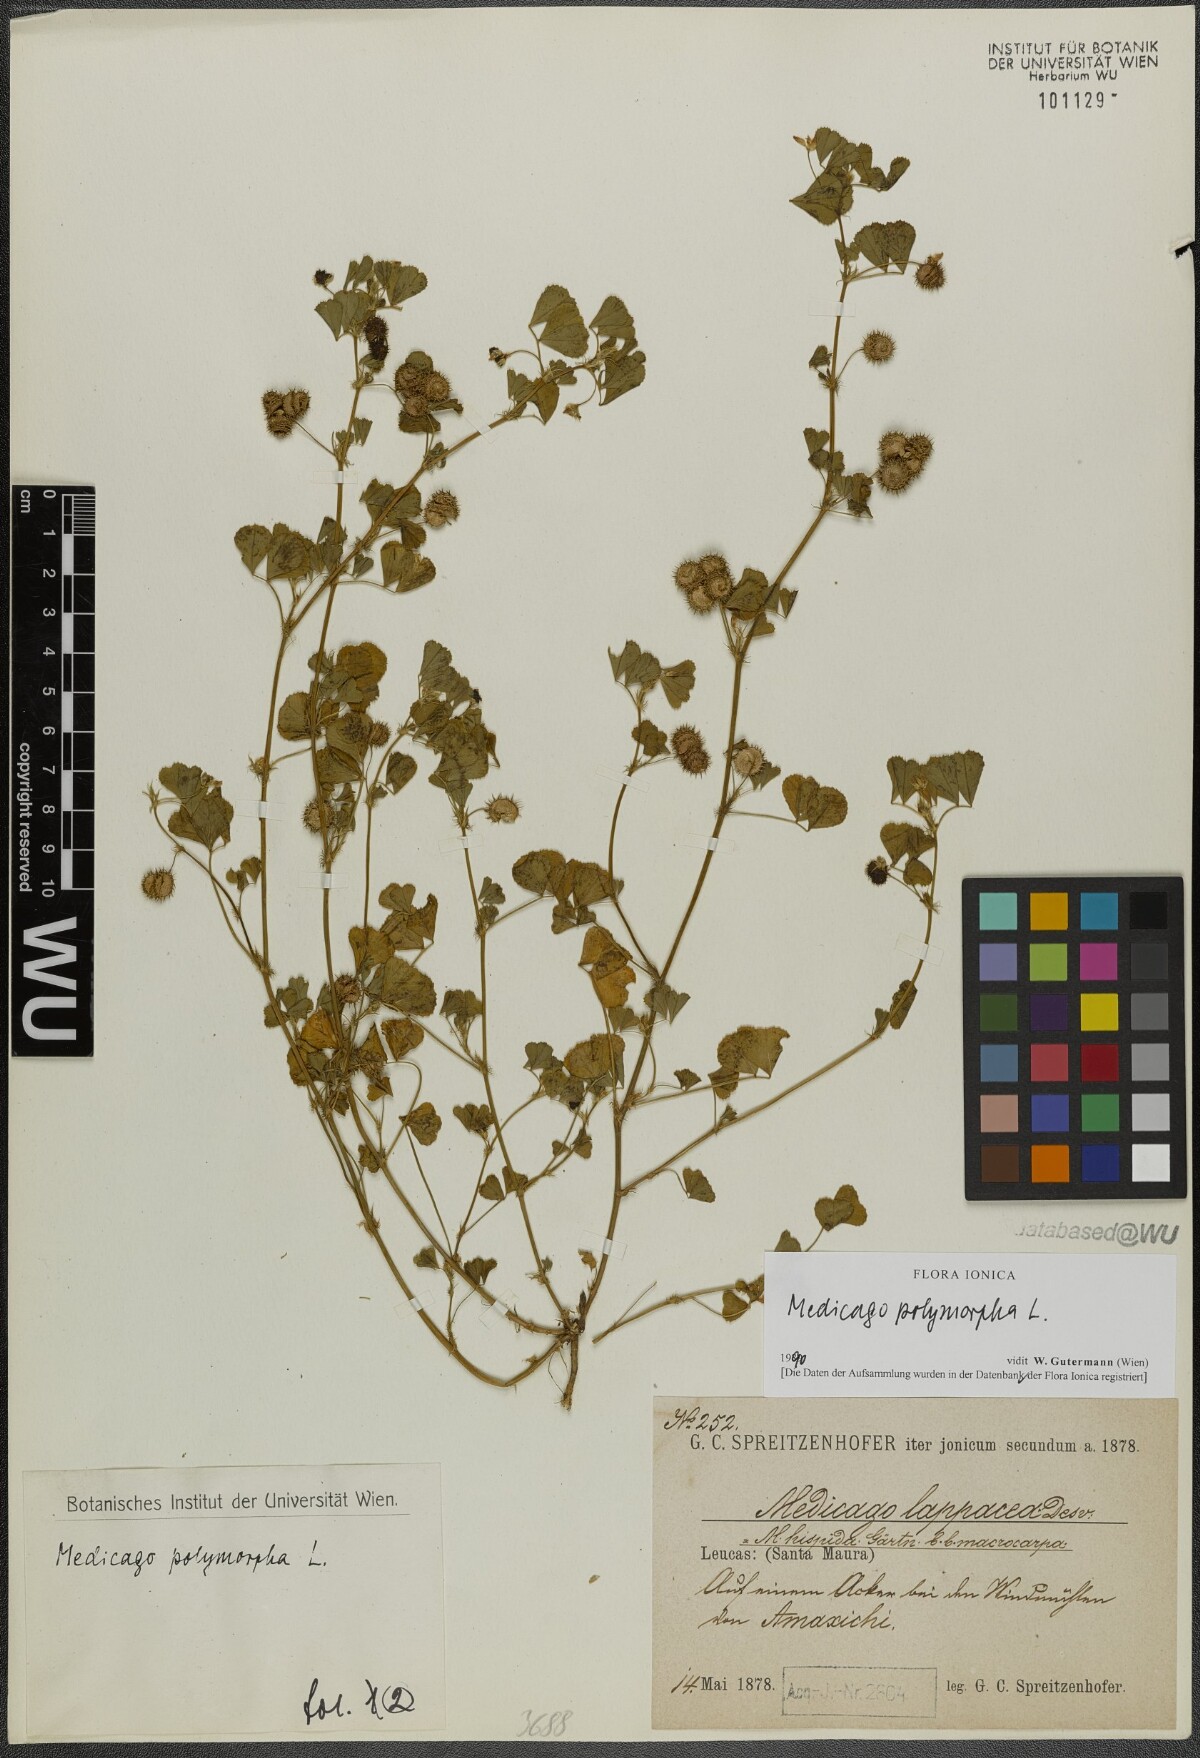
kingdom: Plantae
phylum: Tracheophyta
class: Magnoliopsida
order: Fabales
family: Fabaceae
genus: Medicago
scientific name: Medicago polymorpha
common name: Burclover
